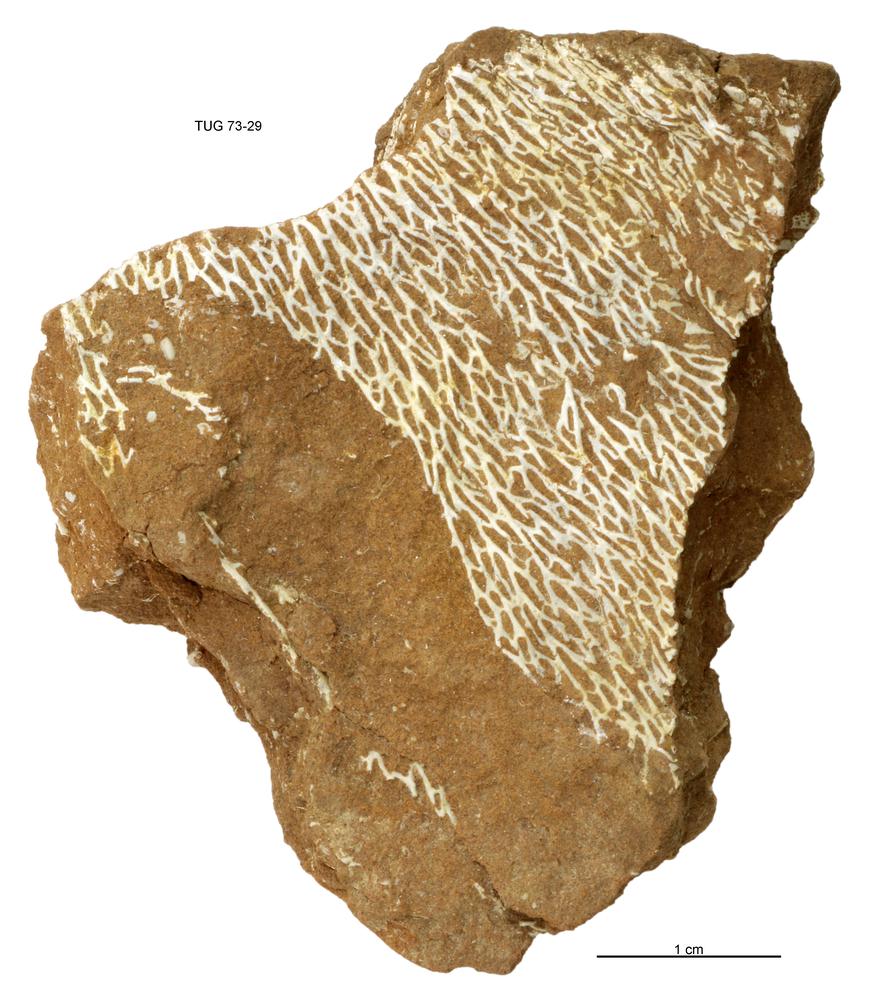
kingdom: Animalia
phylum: Bryozoa
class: Stenolaemata
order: Fenestrida
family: Chasmatoporidae
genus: Chasmatopora
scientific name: Chasmatopora furcata
